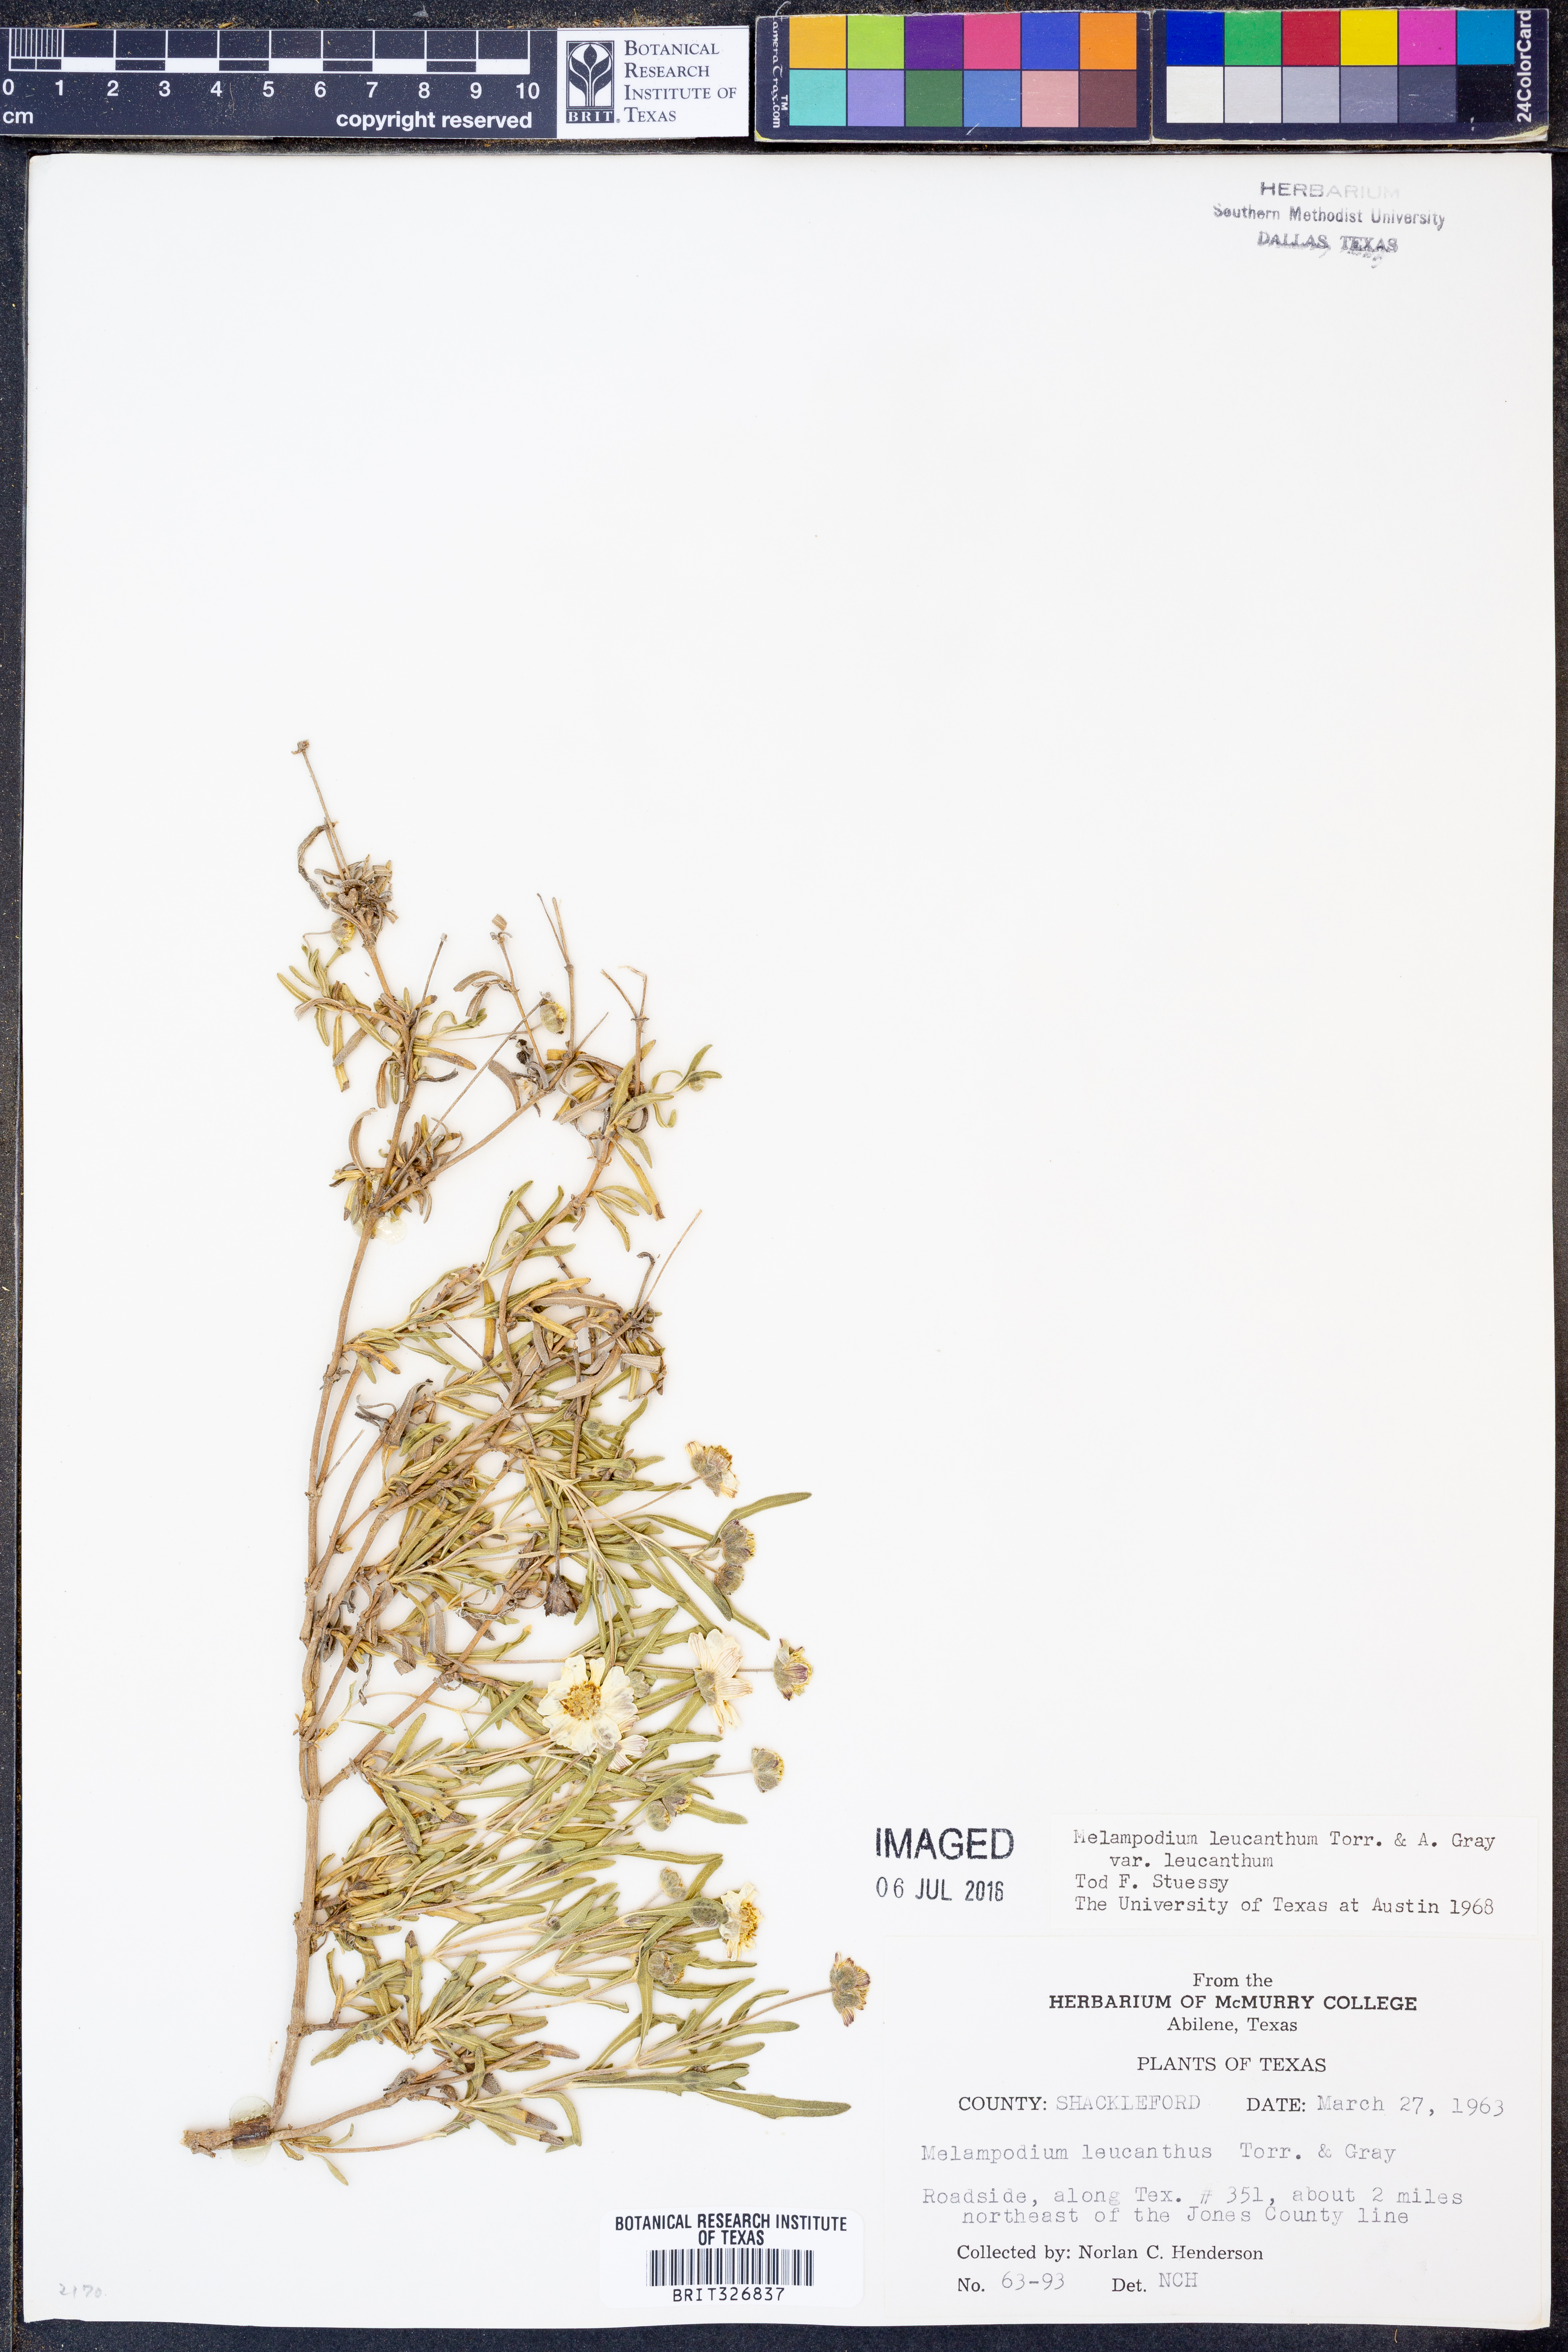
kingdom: Plantae
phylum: Tracheophyta
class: Magnoliopsida
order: Asterales
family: Asteraceae
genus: Melampodium
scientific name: Melampodium leucanthum
